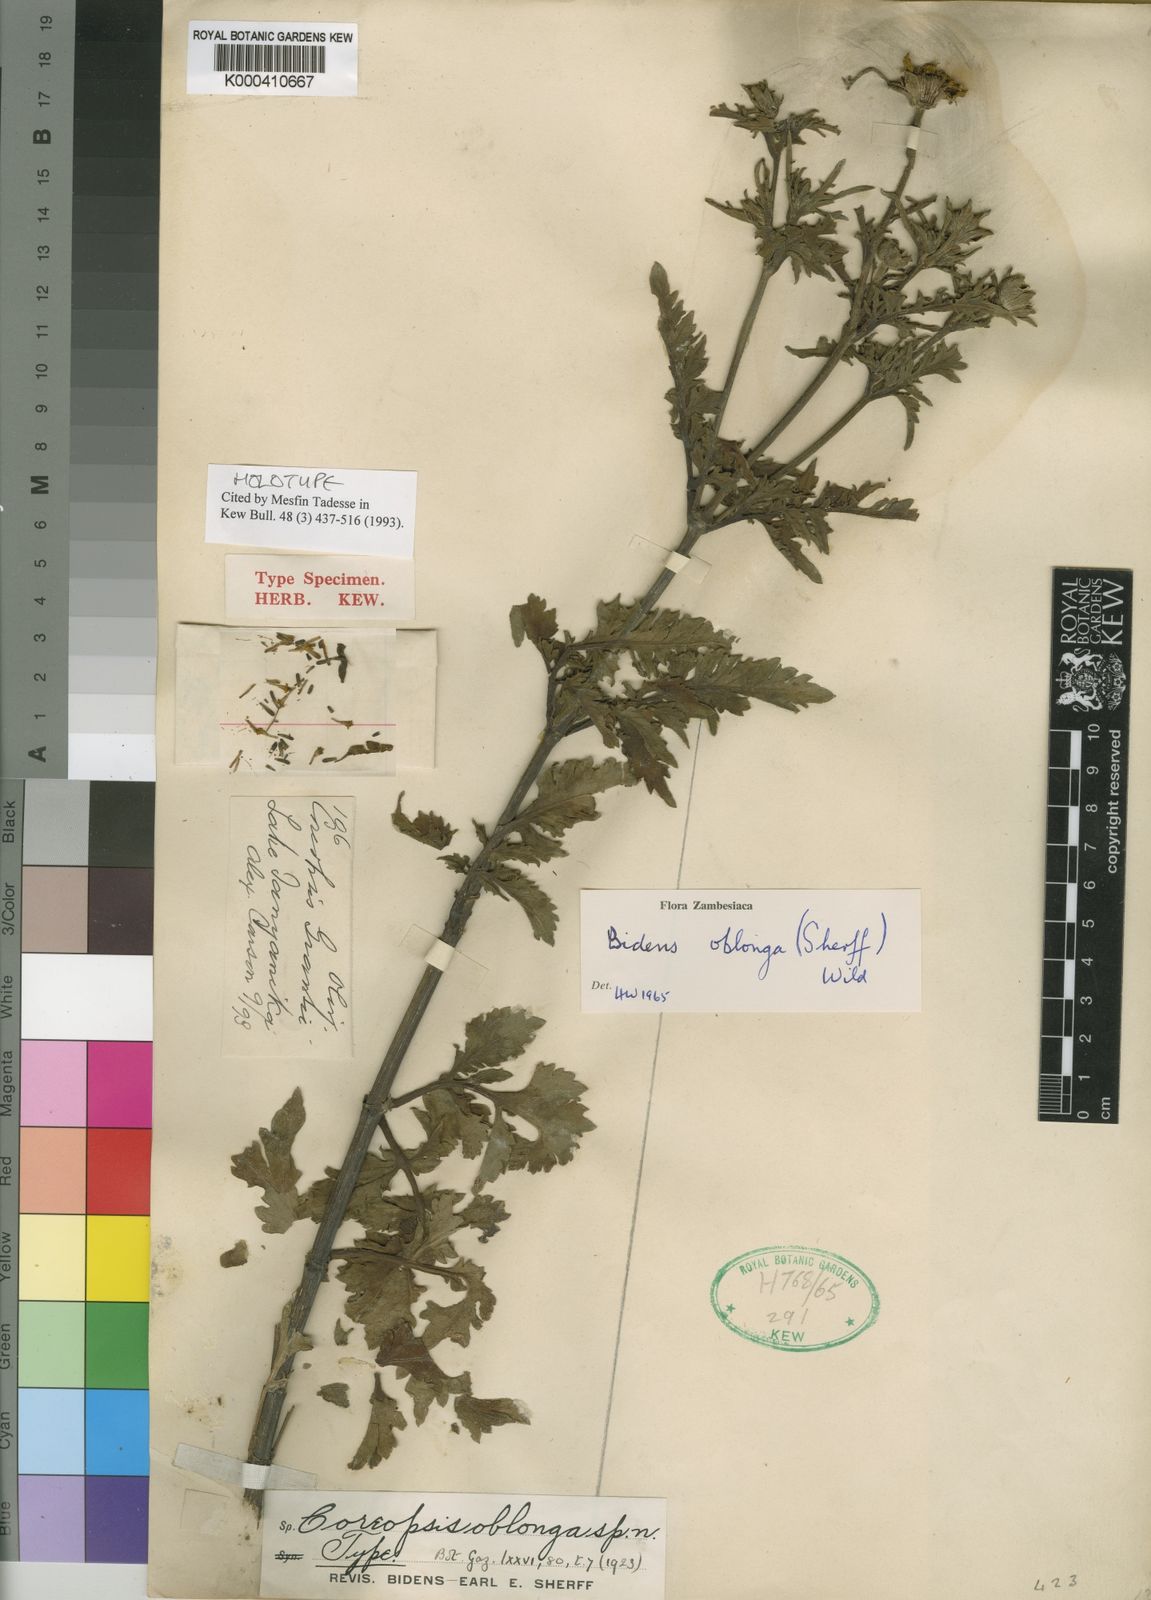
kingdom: Plantae
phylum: Tracheophyta
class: Magnoliopsida
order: Asterales
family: Asteraceae
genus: Bidens
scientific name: Bidens oblonga
